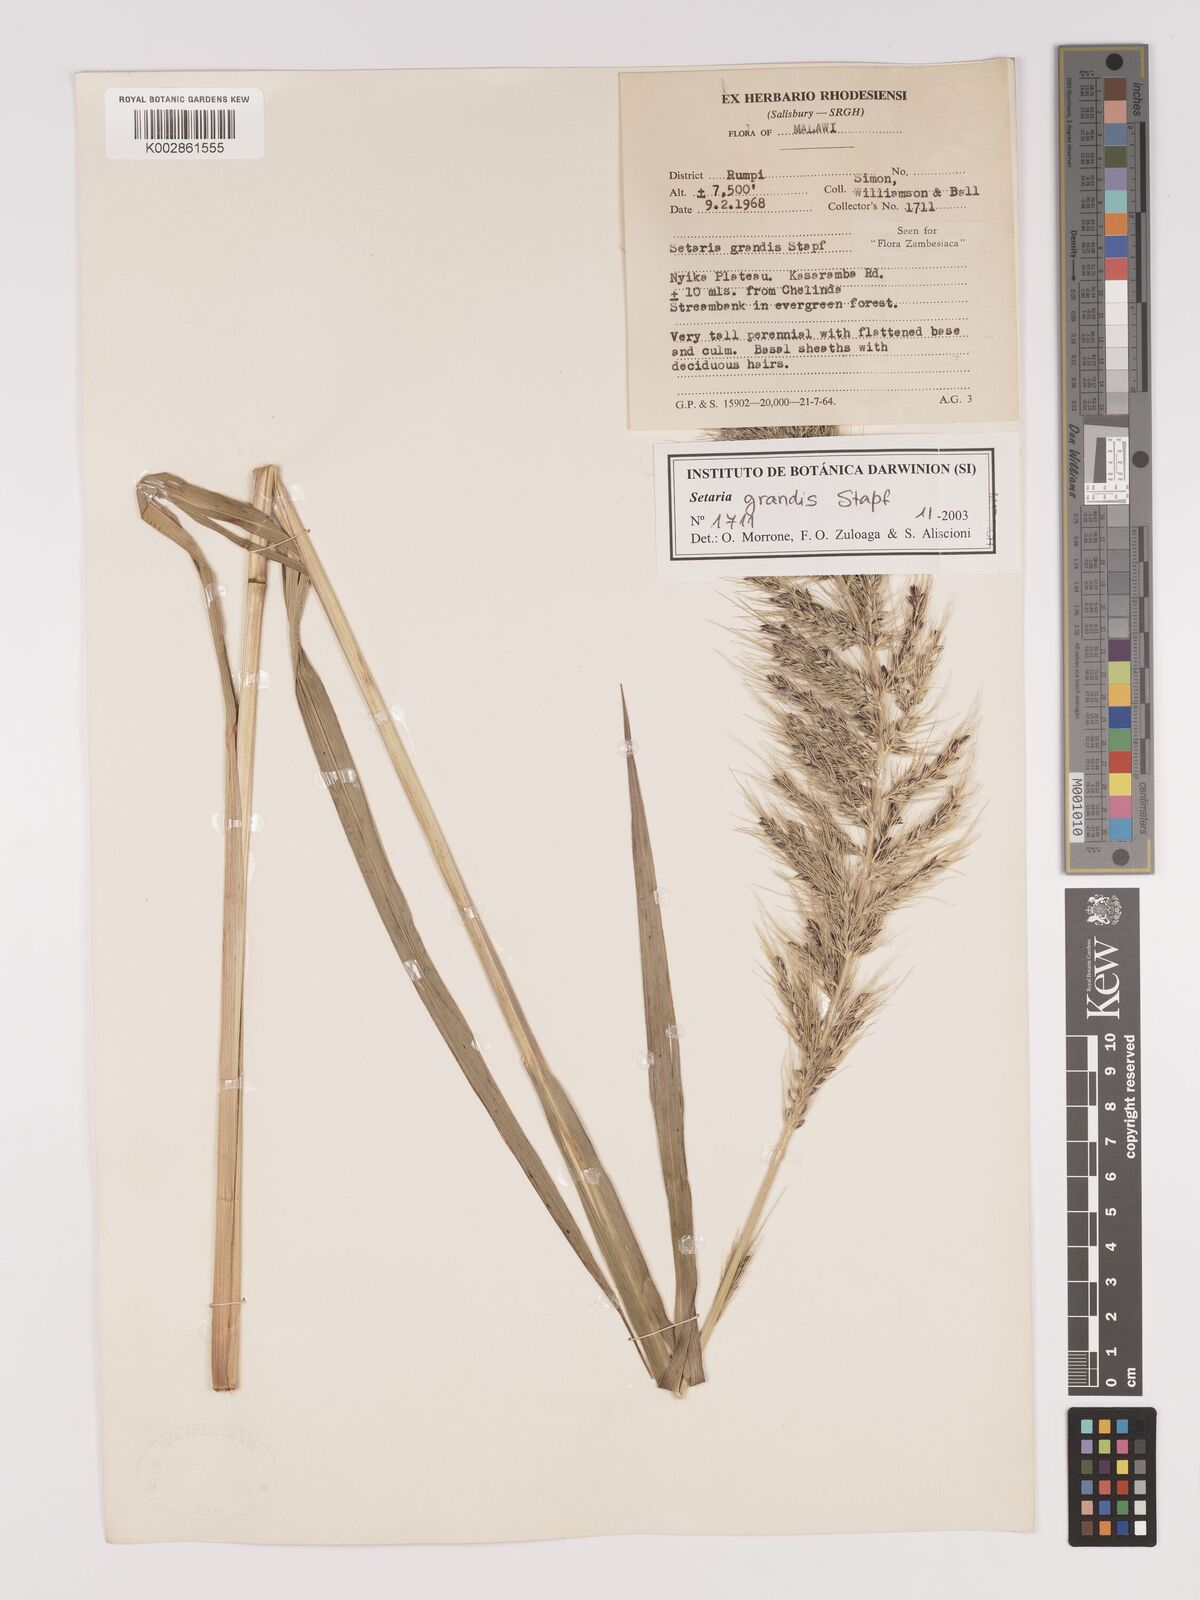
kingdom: Plantae
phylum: Tracheophyta
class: Liliopsida
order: Poales
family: Poaceae
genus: Setaria
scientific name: Setaria grandis
